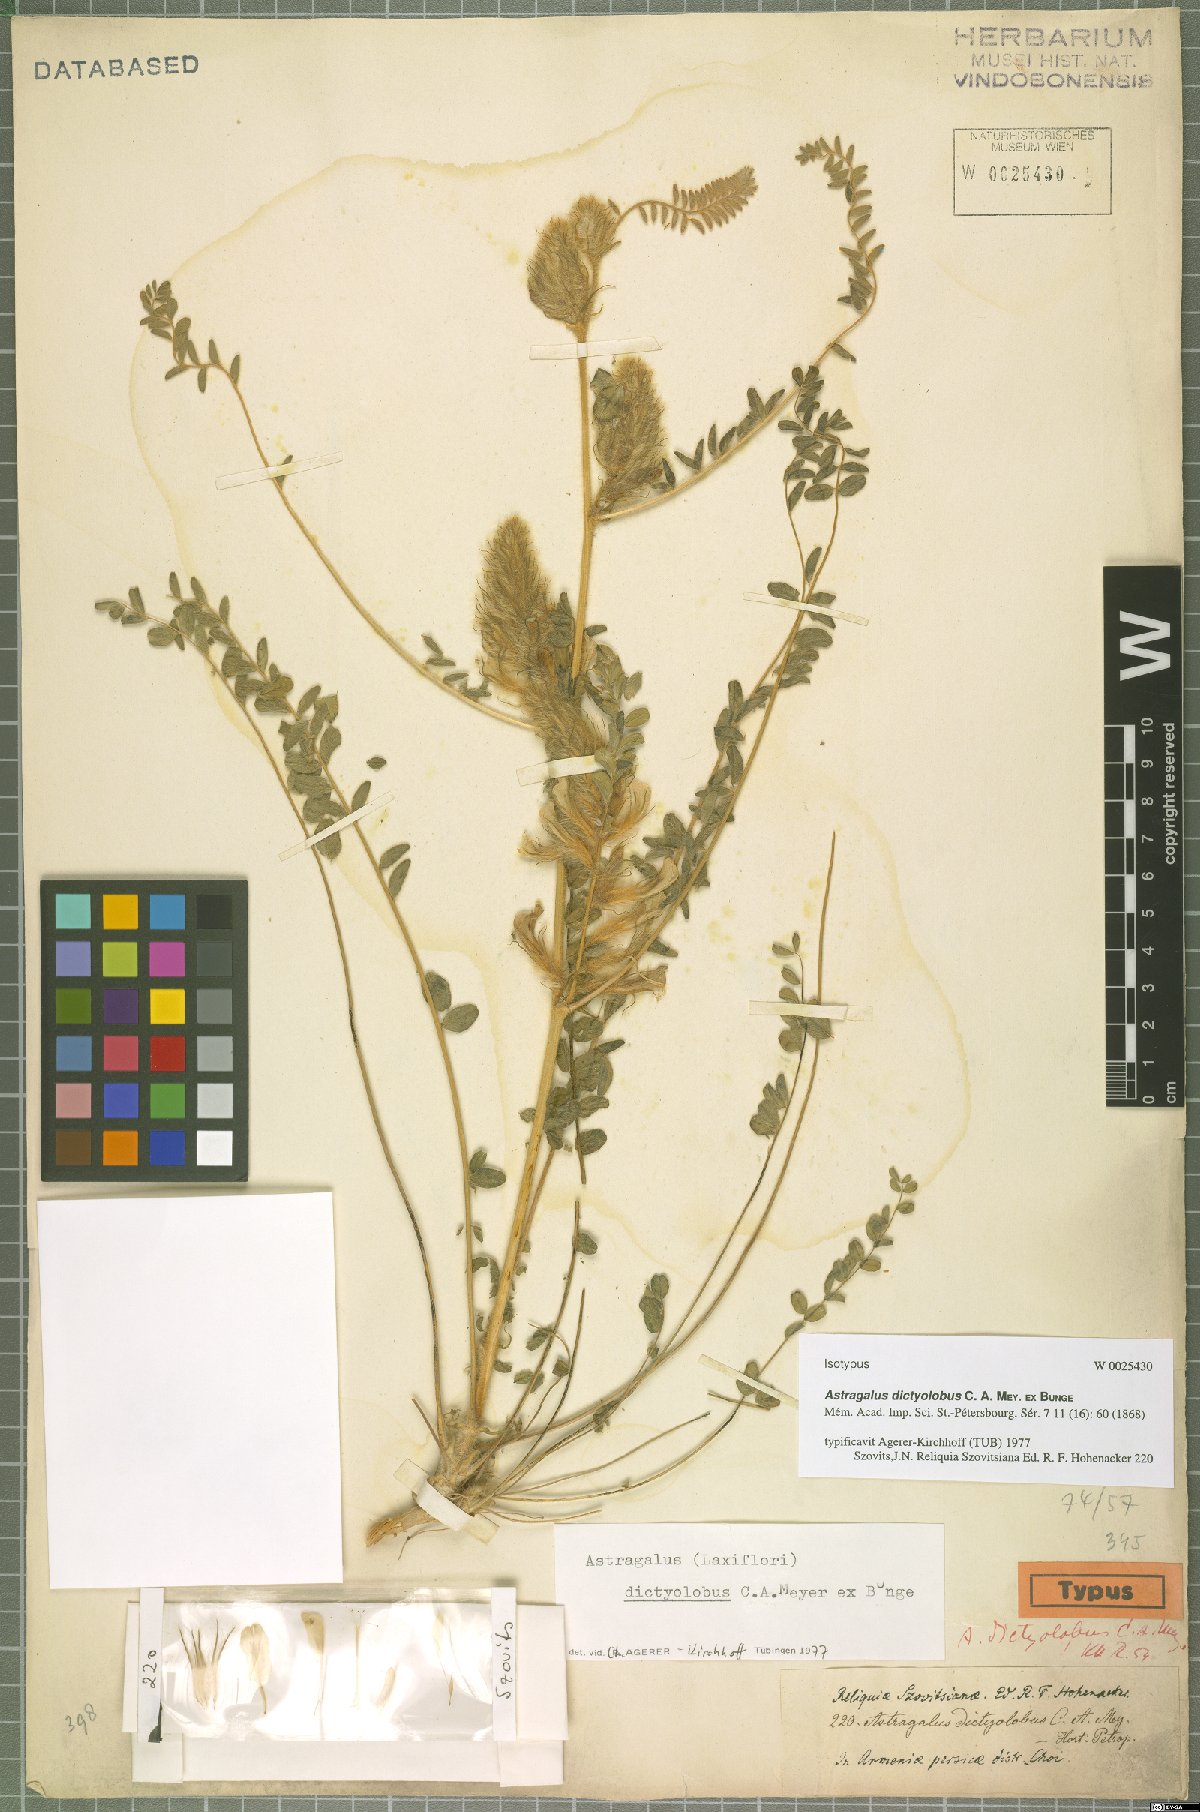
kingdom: Plantae
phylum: Tracheophyta
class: Magnoliopsida
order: Fabales
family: Fabaceae
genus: Astragalus
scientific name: Astragalus dictyolobus
